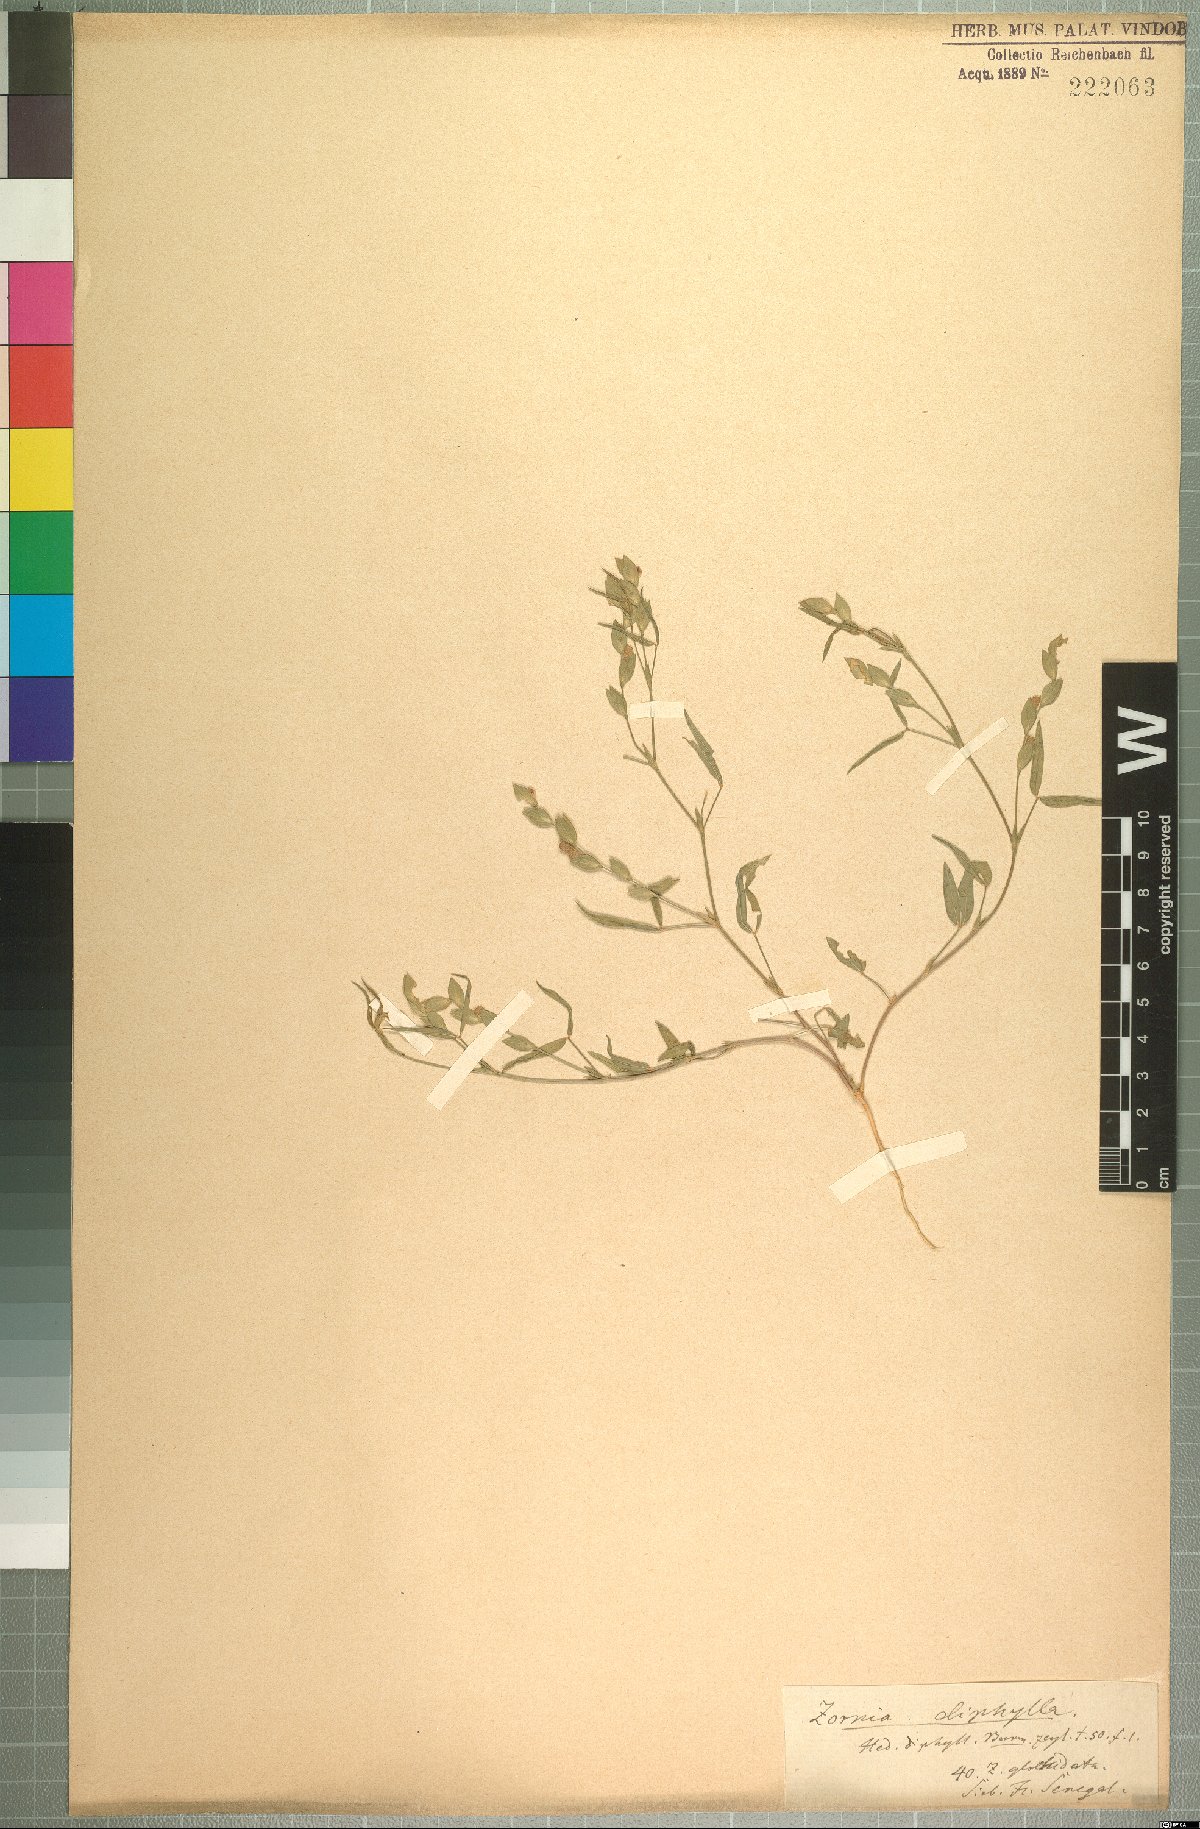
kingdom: Plantae
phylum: Tracheophyta
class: Magnoliopsida
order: Fabales
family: Fabaceae
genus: Zornia
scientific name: Zornia glochidiata
